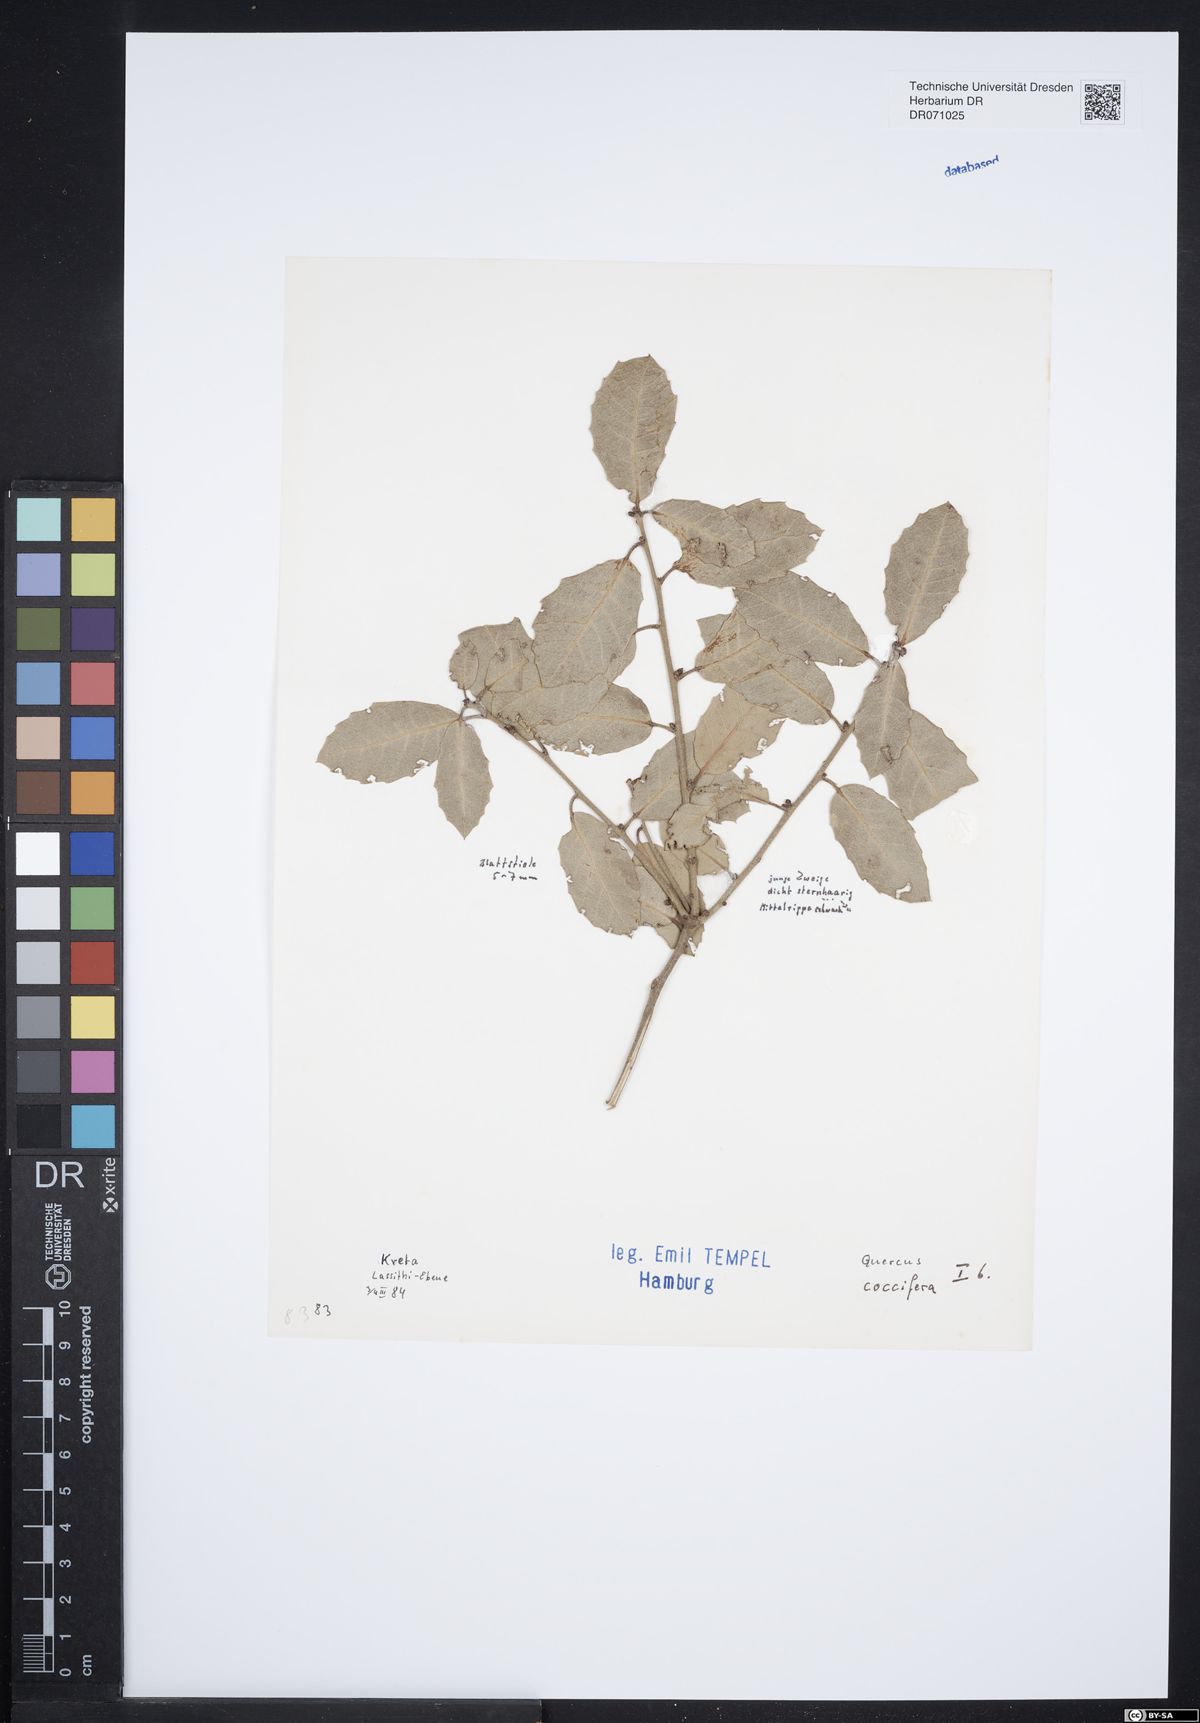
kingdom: Plantae
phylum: Tracheophyta
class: Magnoliopsida
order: Fagales
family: Fagaceae
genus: Quercus
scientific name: Quercus coccifera
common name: Kermes oak
